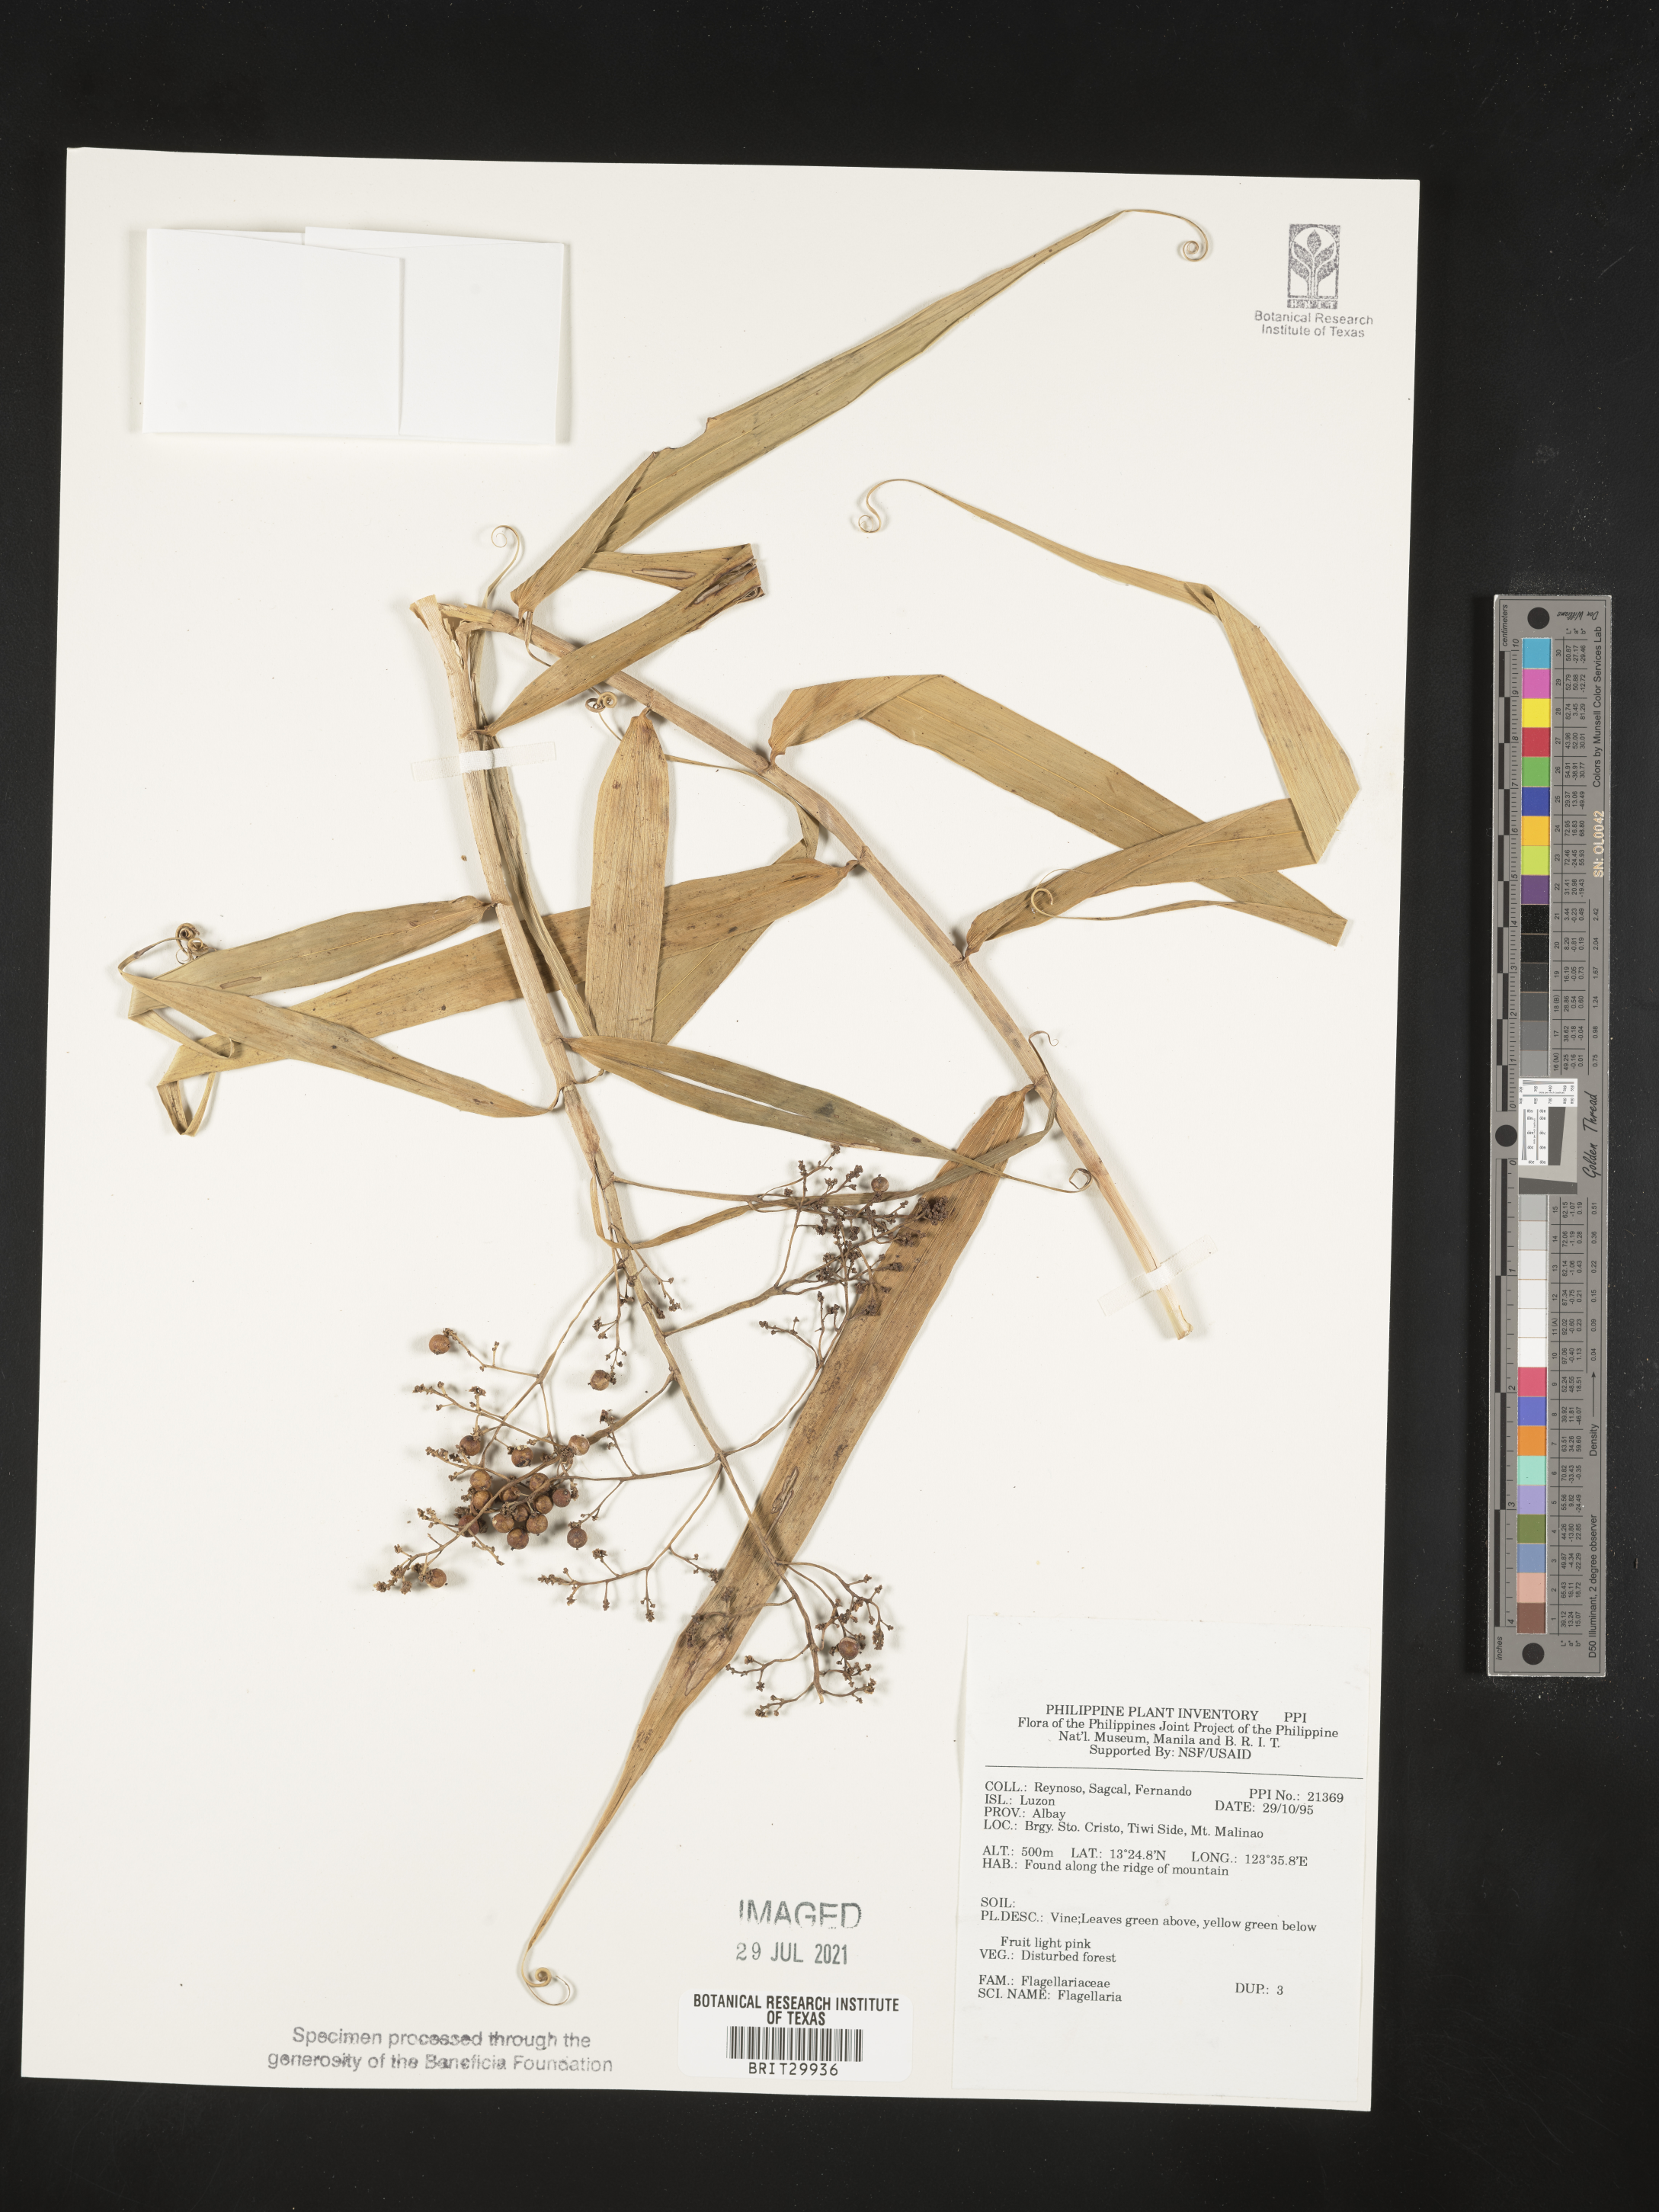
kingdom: Plantae
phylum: Tracheophyta
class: Liliopsida
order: Poales
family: Flagellariaceae
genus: Flagellaria
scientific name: Flagellaria
